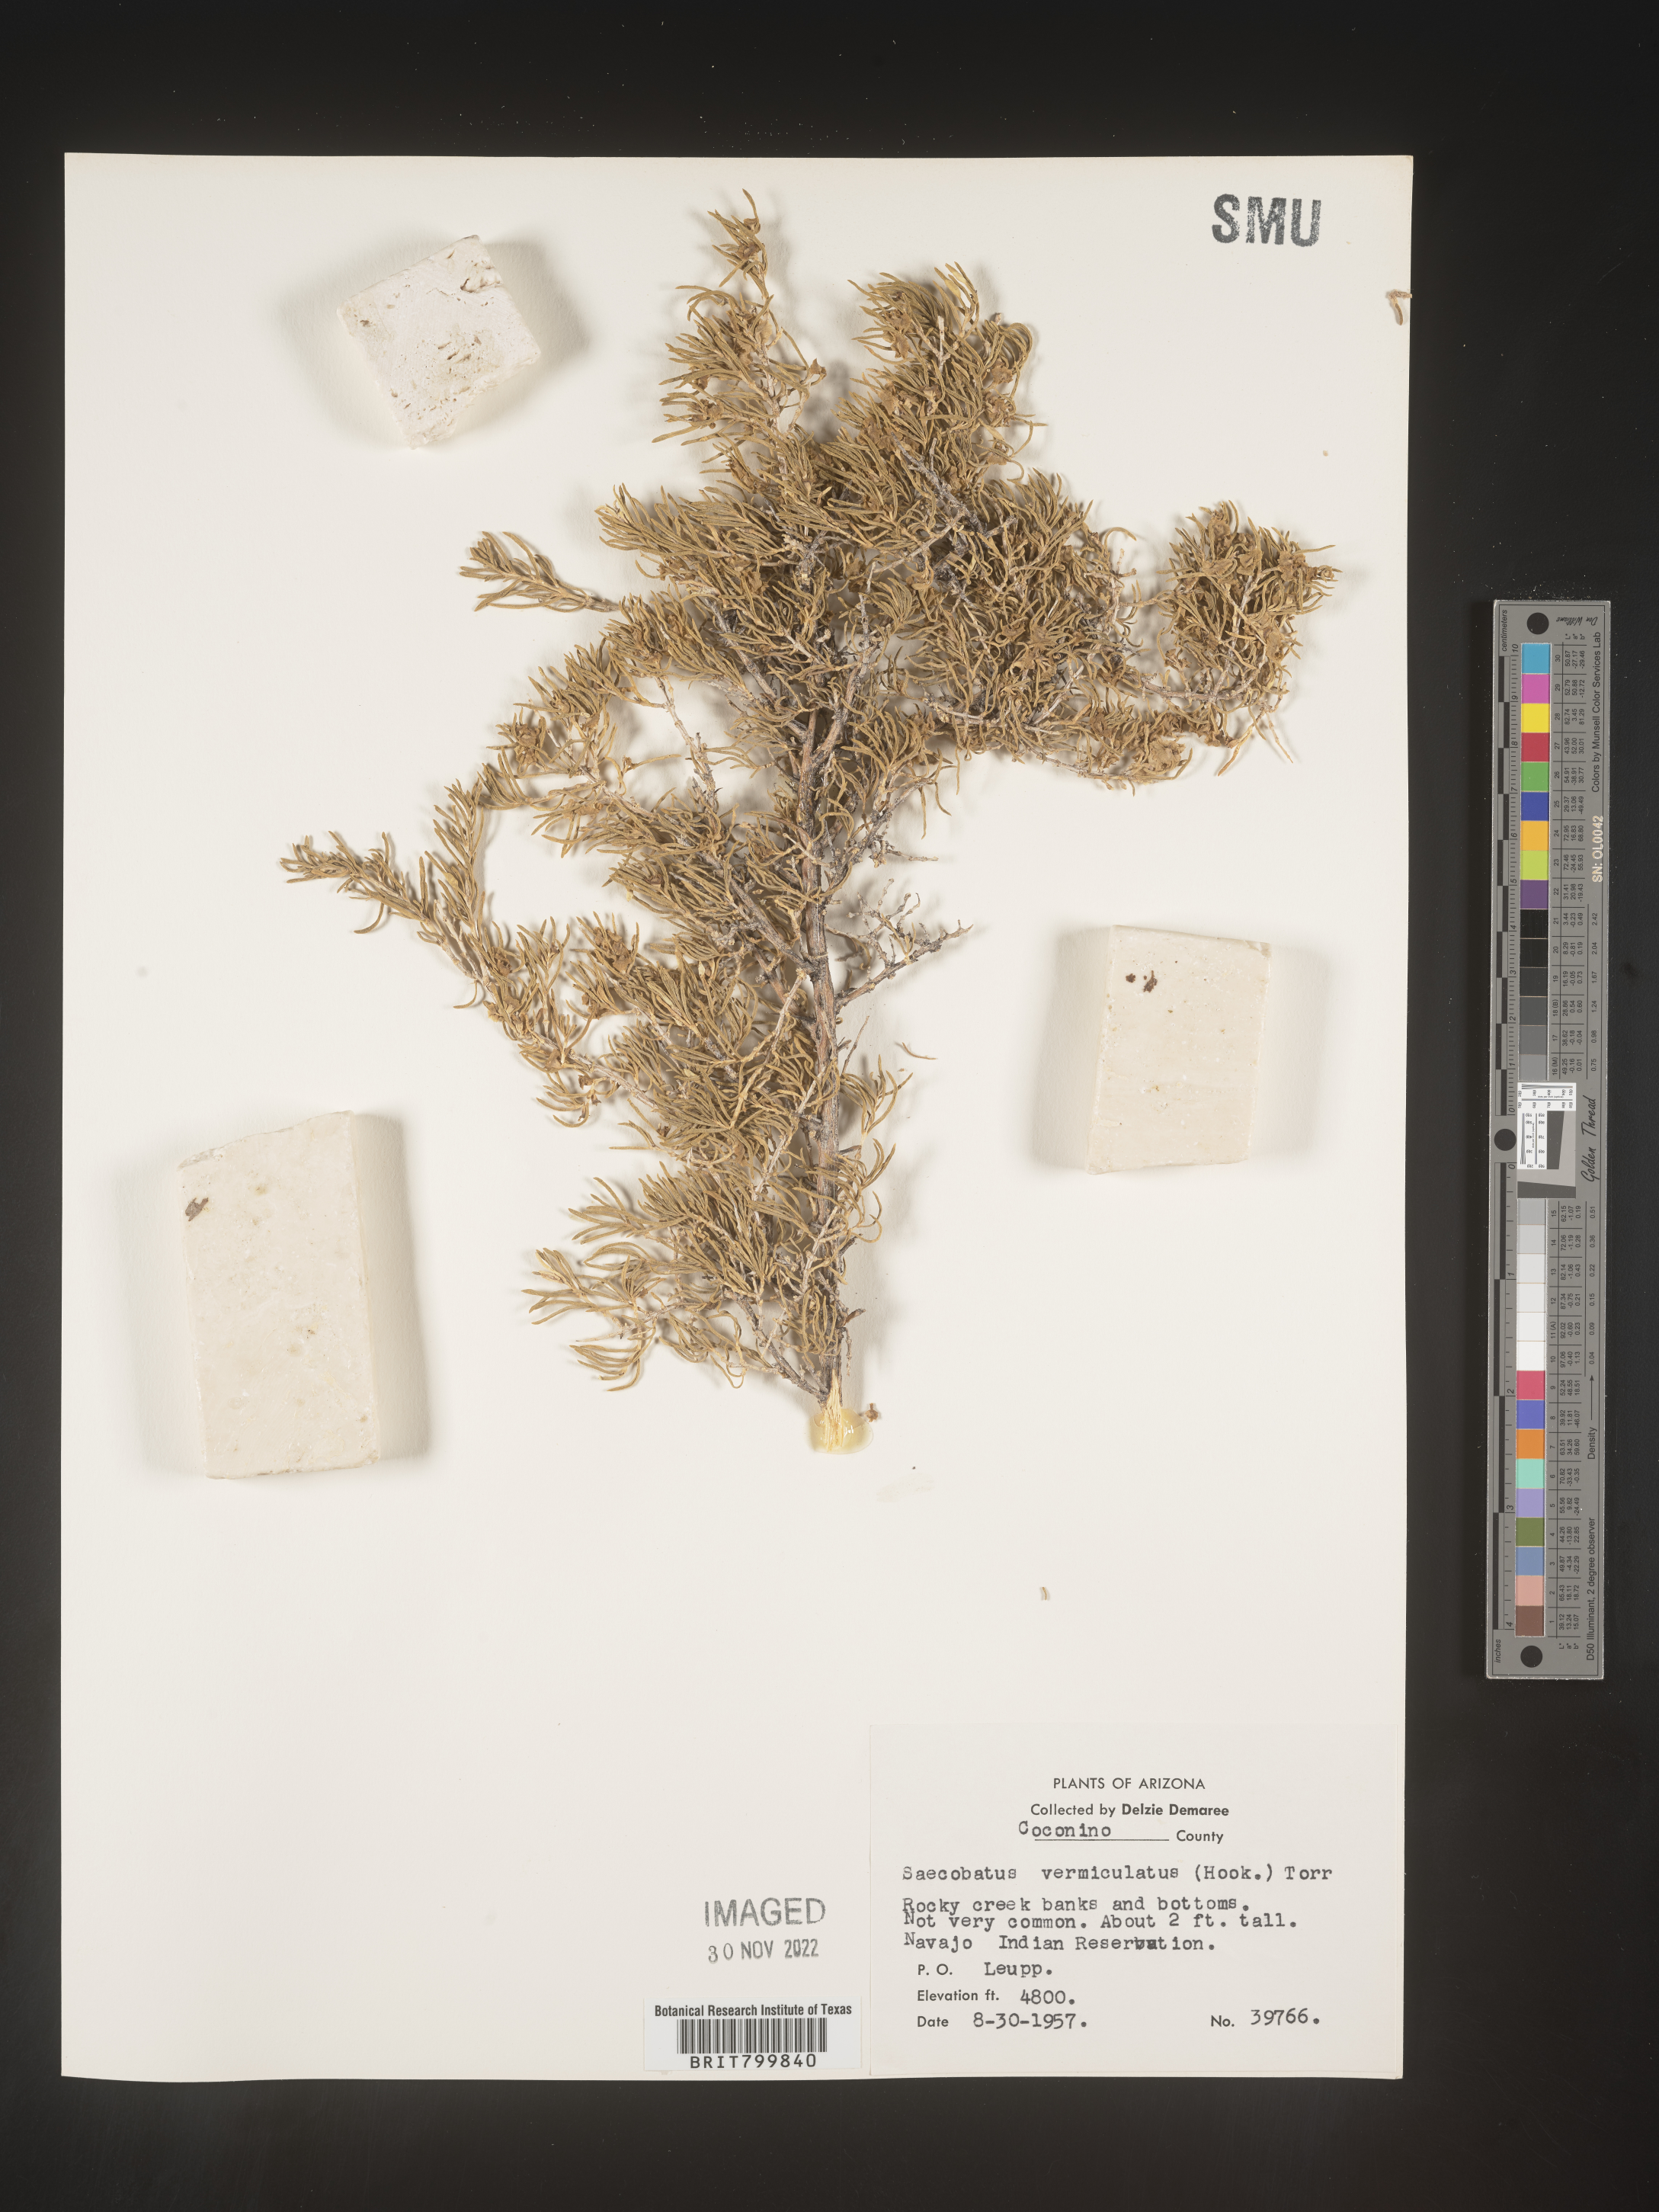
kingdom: Plantae
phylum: Tracheophyta
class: Magnoliopsida
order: Caryophyllales
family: Sarcobataceae
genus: Sarcobatus
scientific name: Sarcobatus vermiculatus
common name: Greasewood
